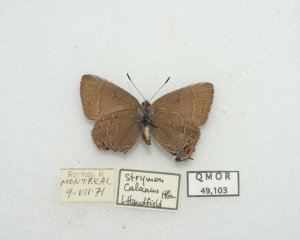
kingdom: Animalia
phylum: Arthropoda
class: Insecta
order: Lepidoptera
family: Lycaenidae
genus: Satyrium
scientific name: Satyrium calanus
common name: Banded Hairstreak
